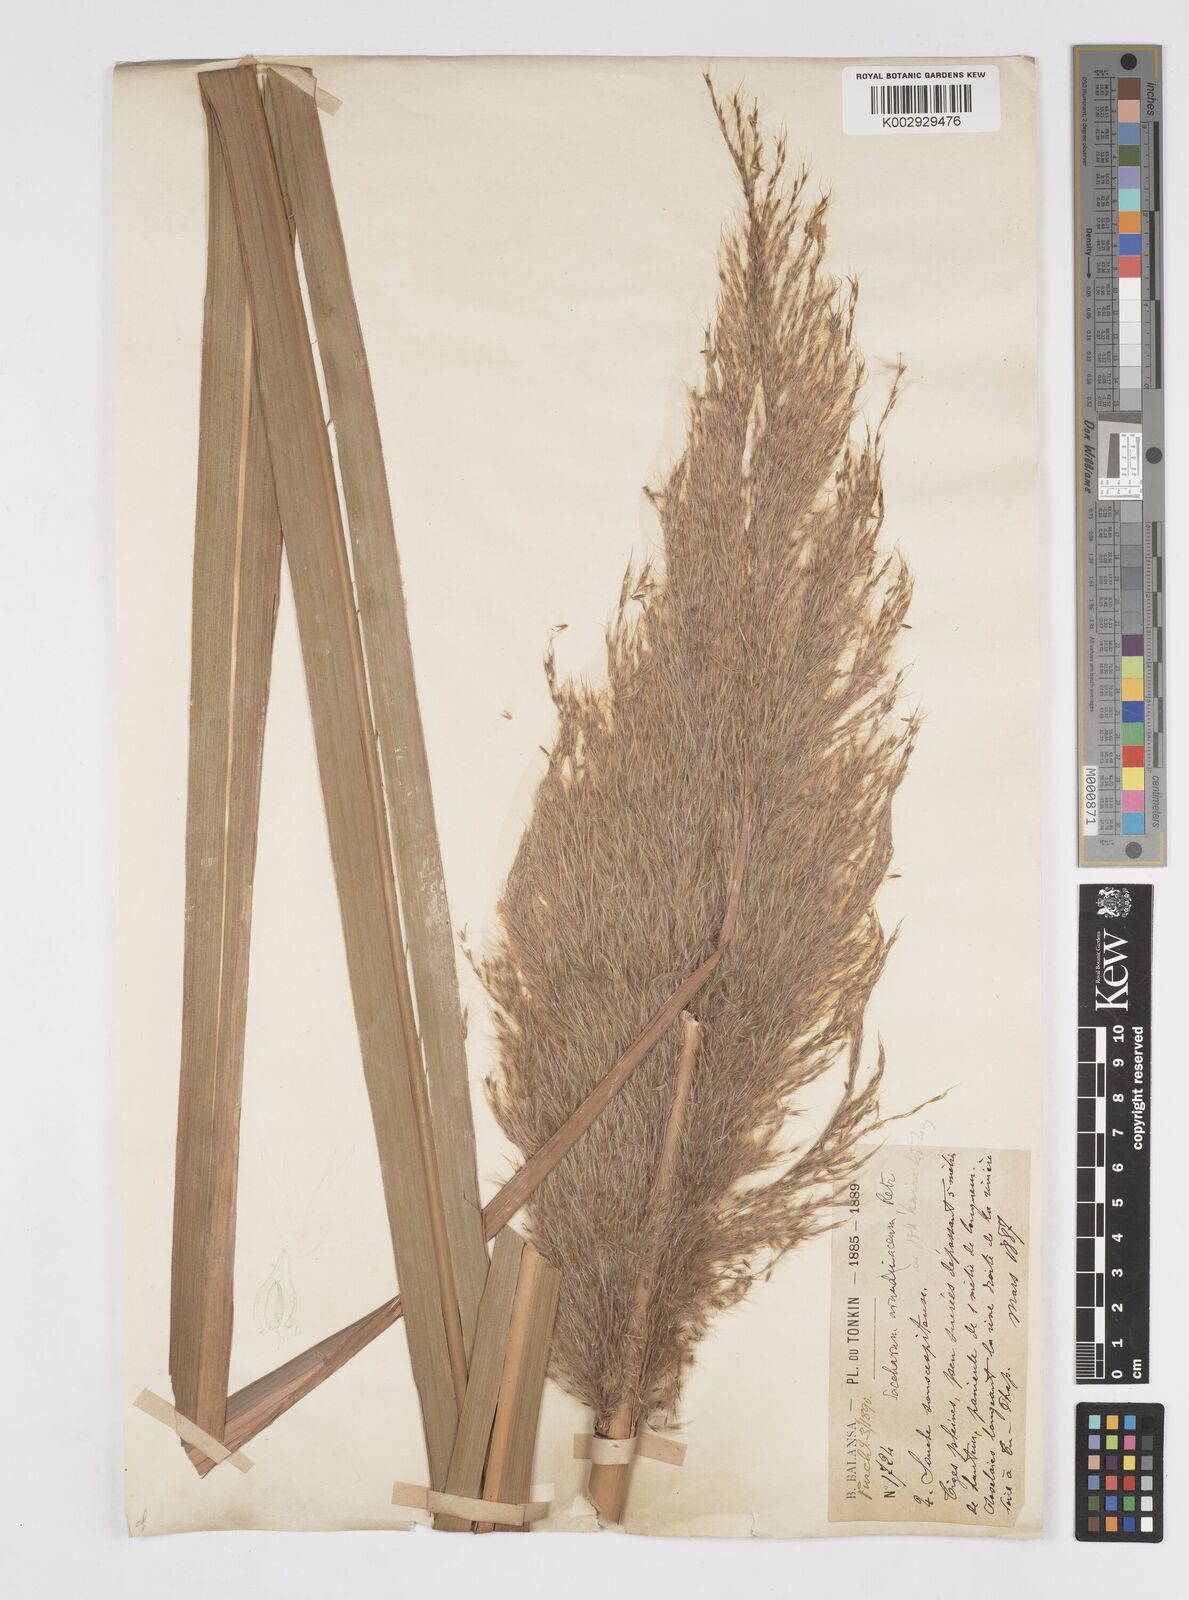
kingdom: Plantae
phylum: Tracheophyta
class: Liliopsida
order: Poales
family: Poaceae
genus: Tripidium
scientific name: Tripidium arundinaceum
